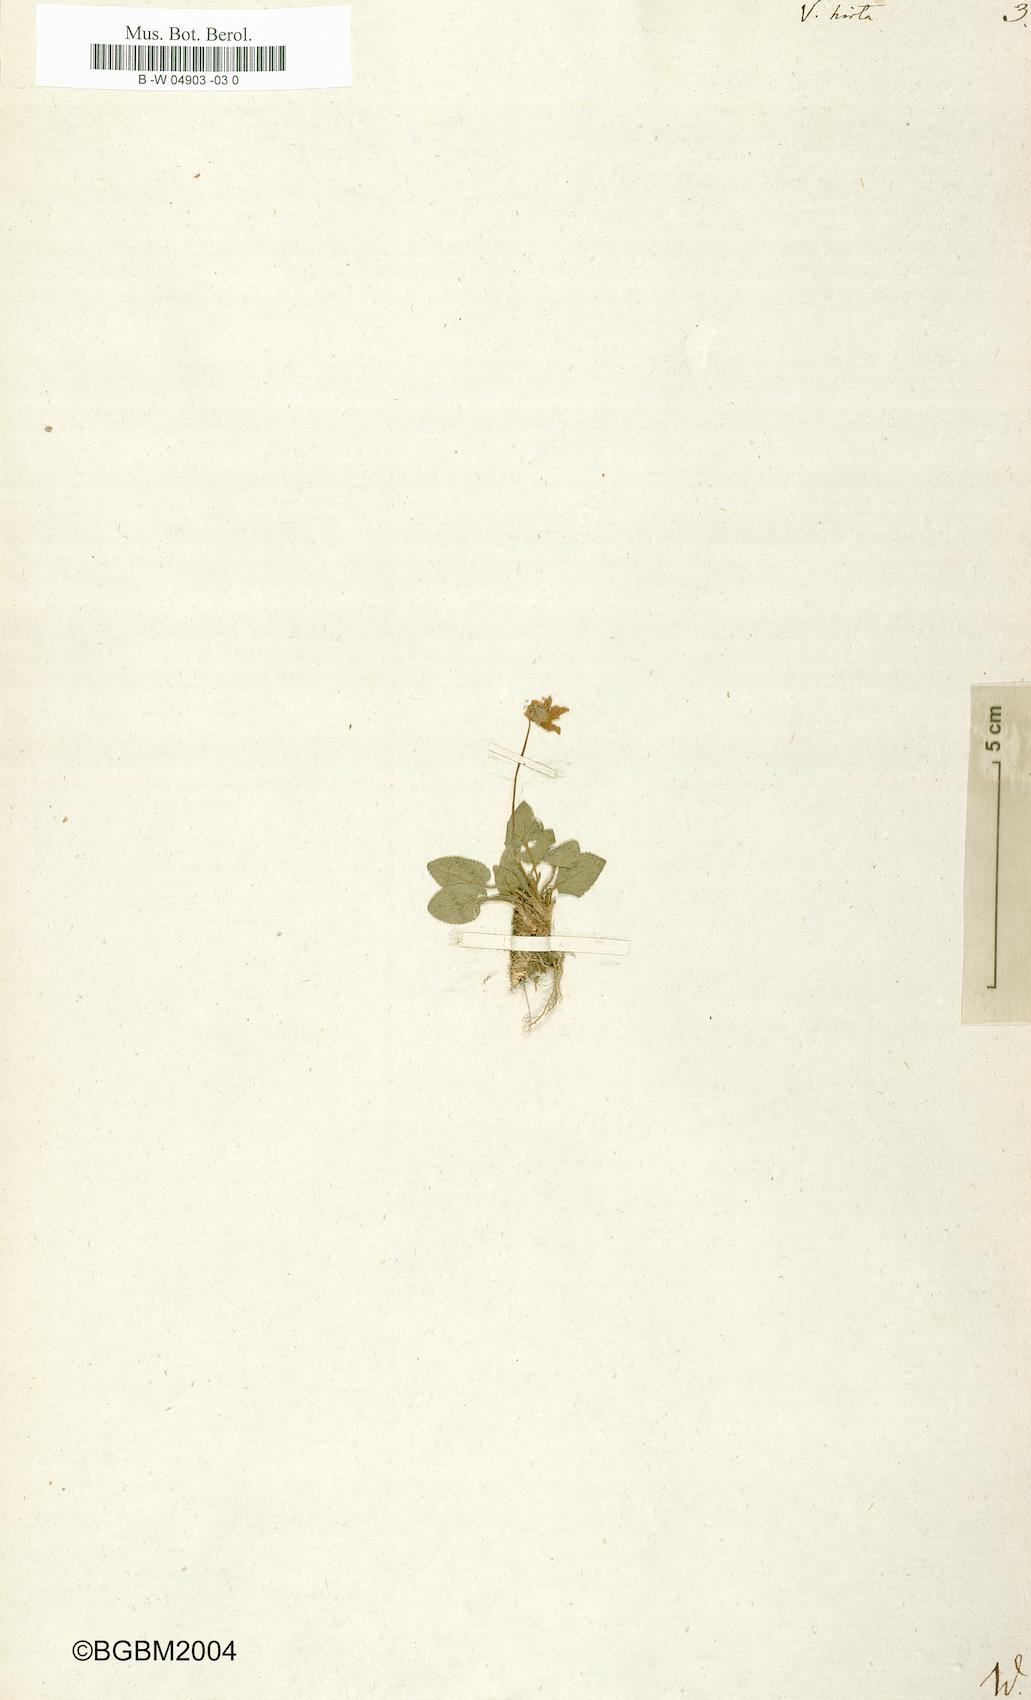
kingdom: Plantae
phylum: Tracheophyta
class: Magnoliopsida
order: Malpighiales
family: Violaceae
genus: Viola
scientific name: Viola hirta
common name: Hairy violet
